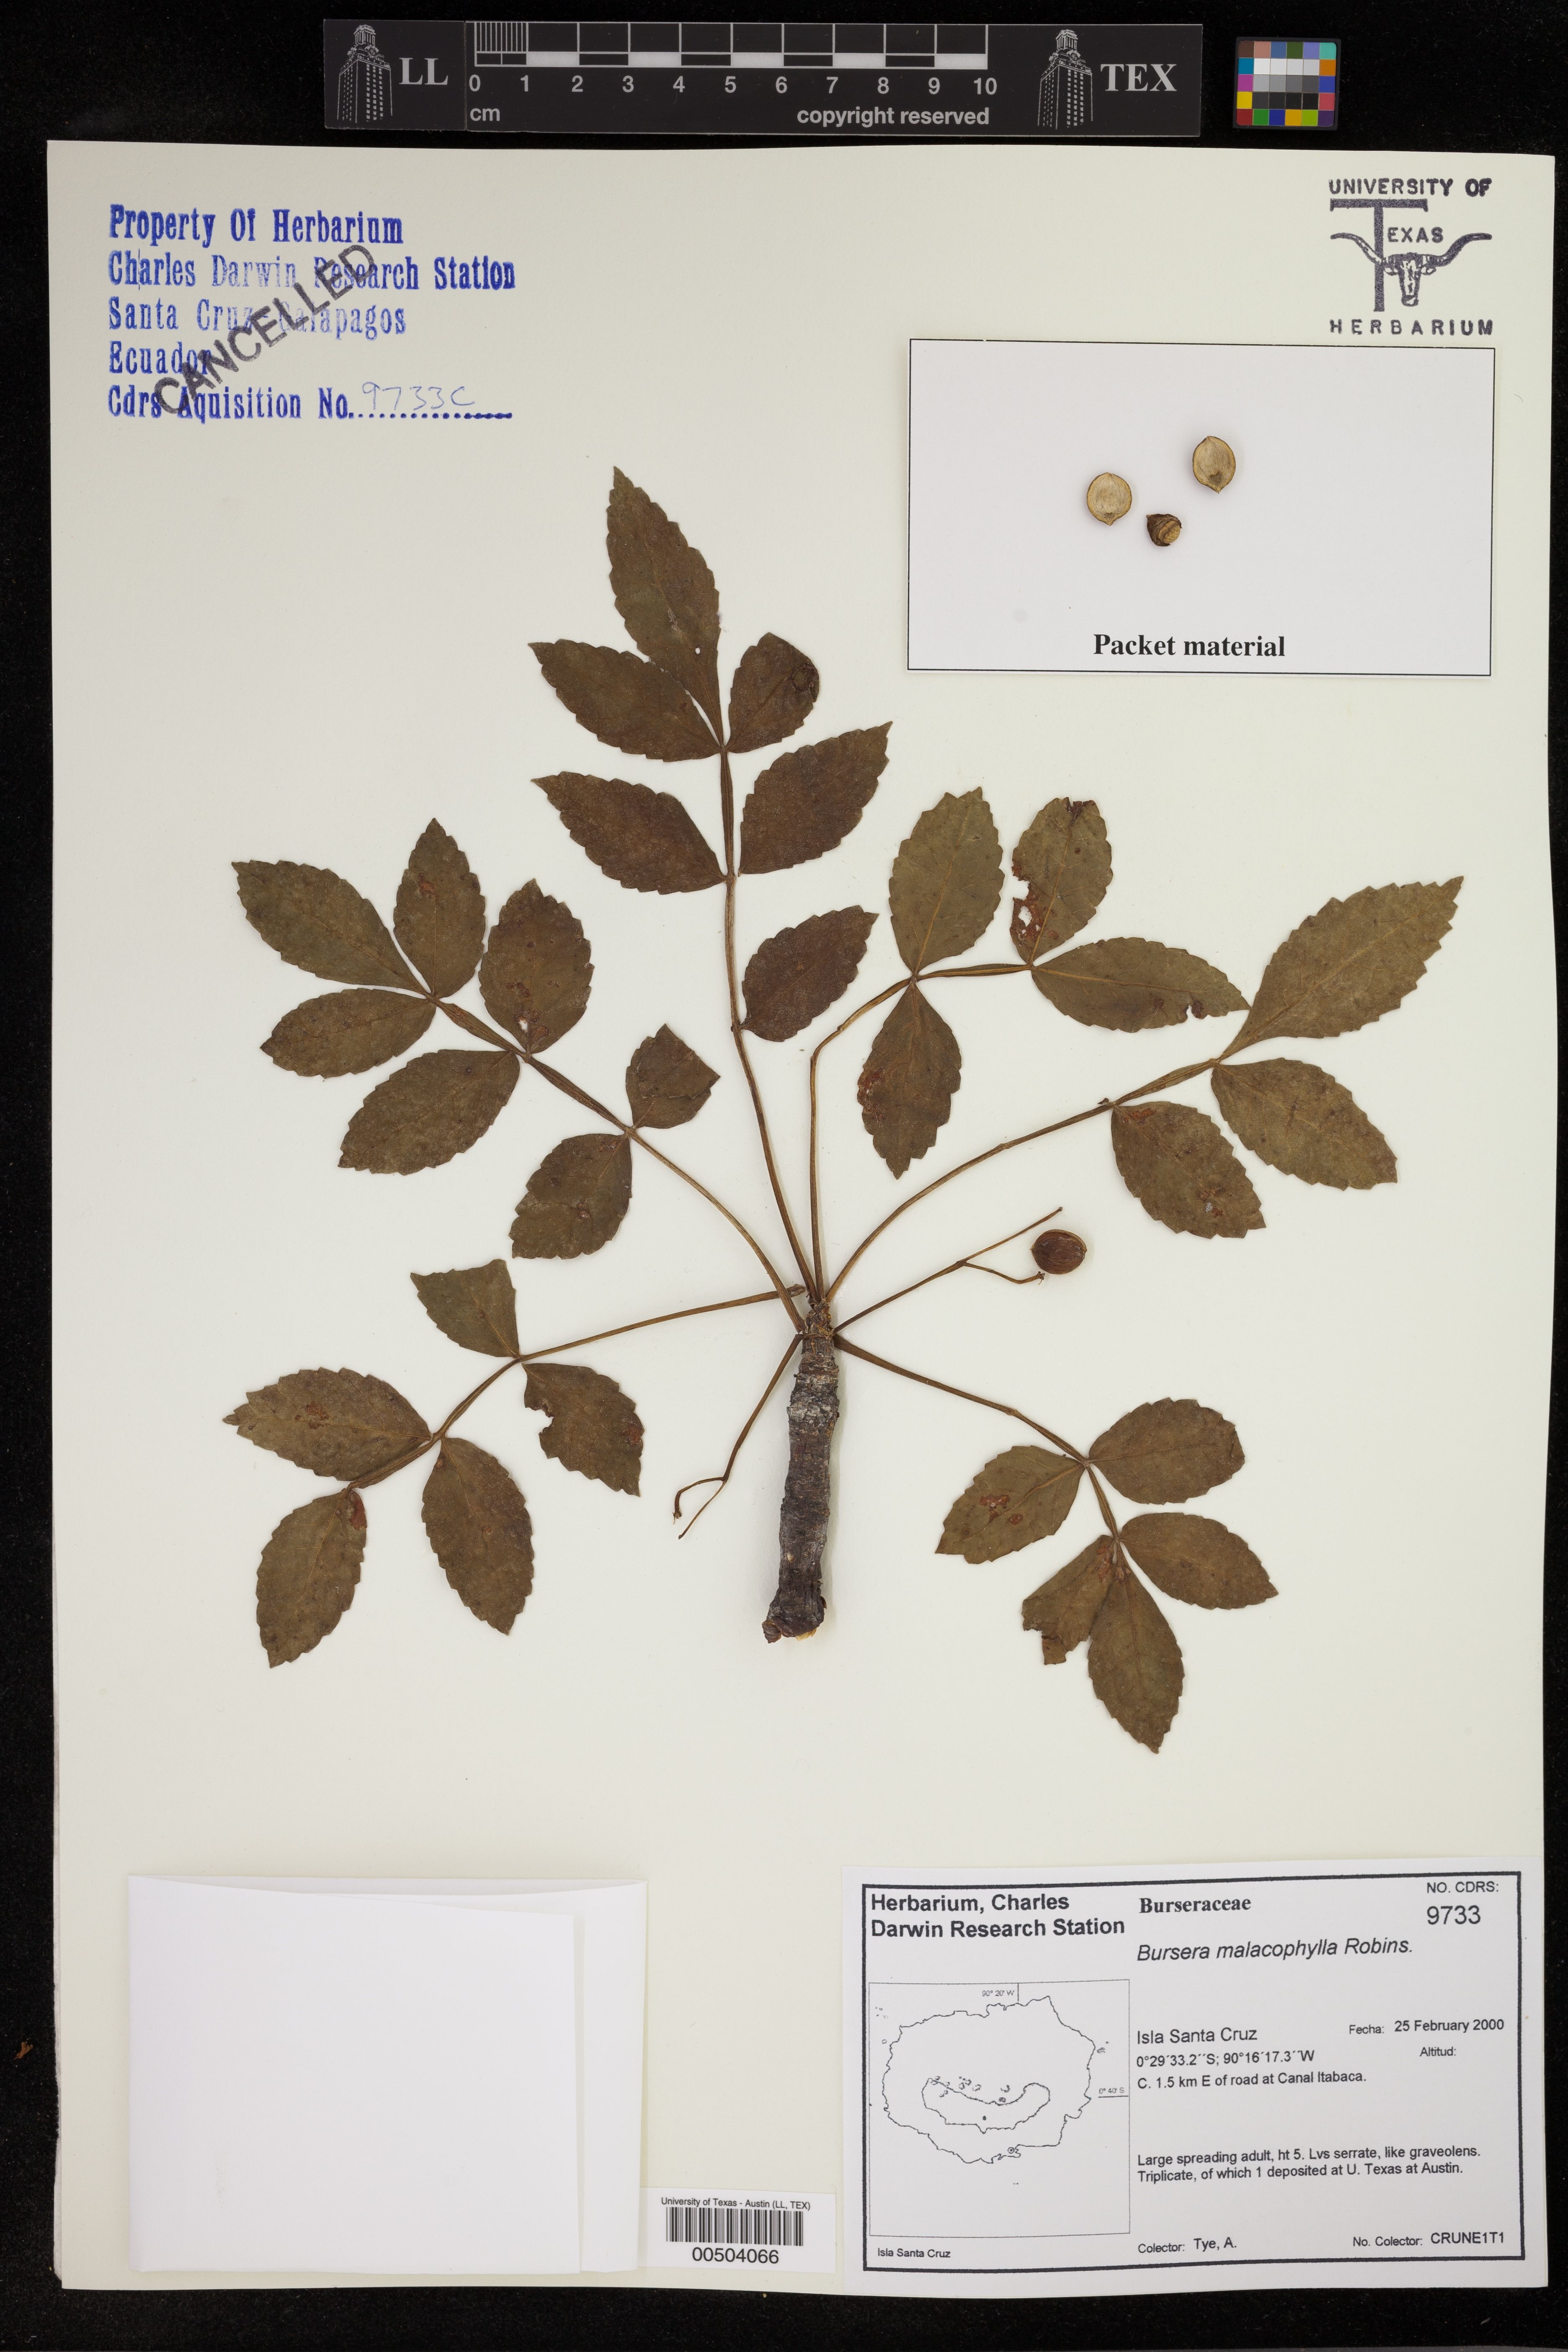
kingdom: Plantae
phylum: Tracheophyta
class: Magnoliopsida
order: Sapindales
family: Burseraceae
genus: Bursera
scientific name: Bursera graveolens
